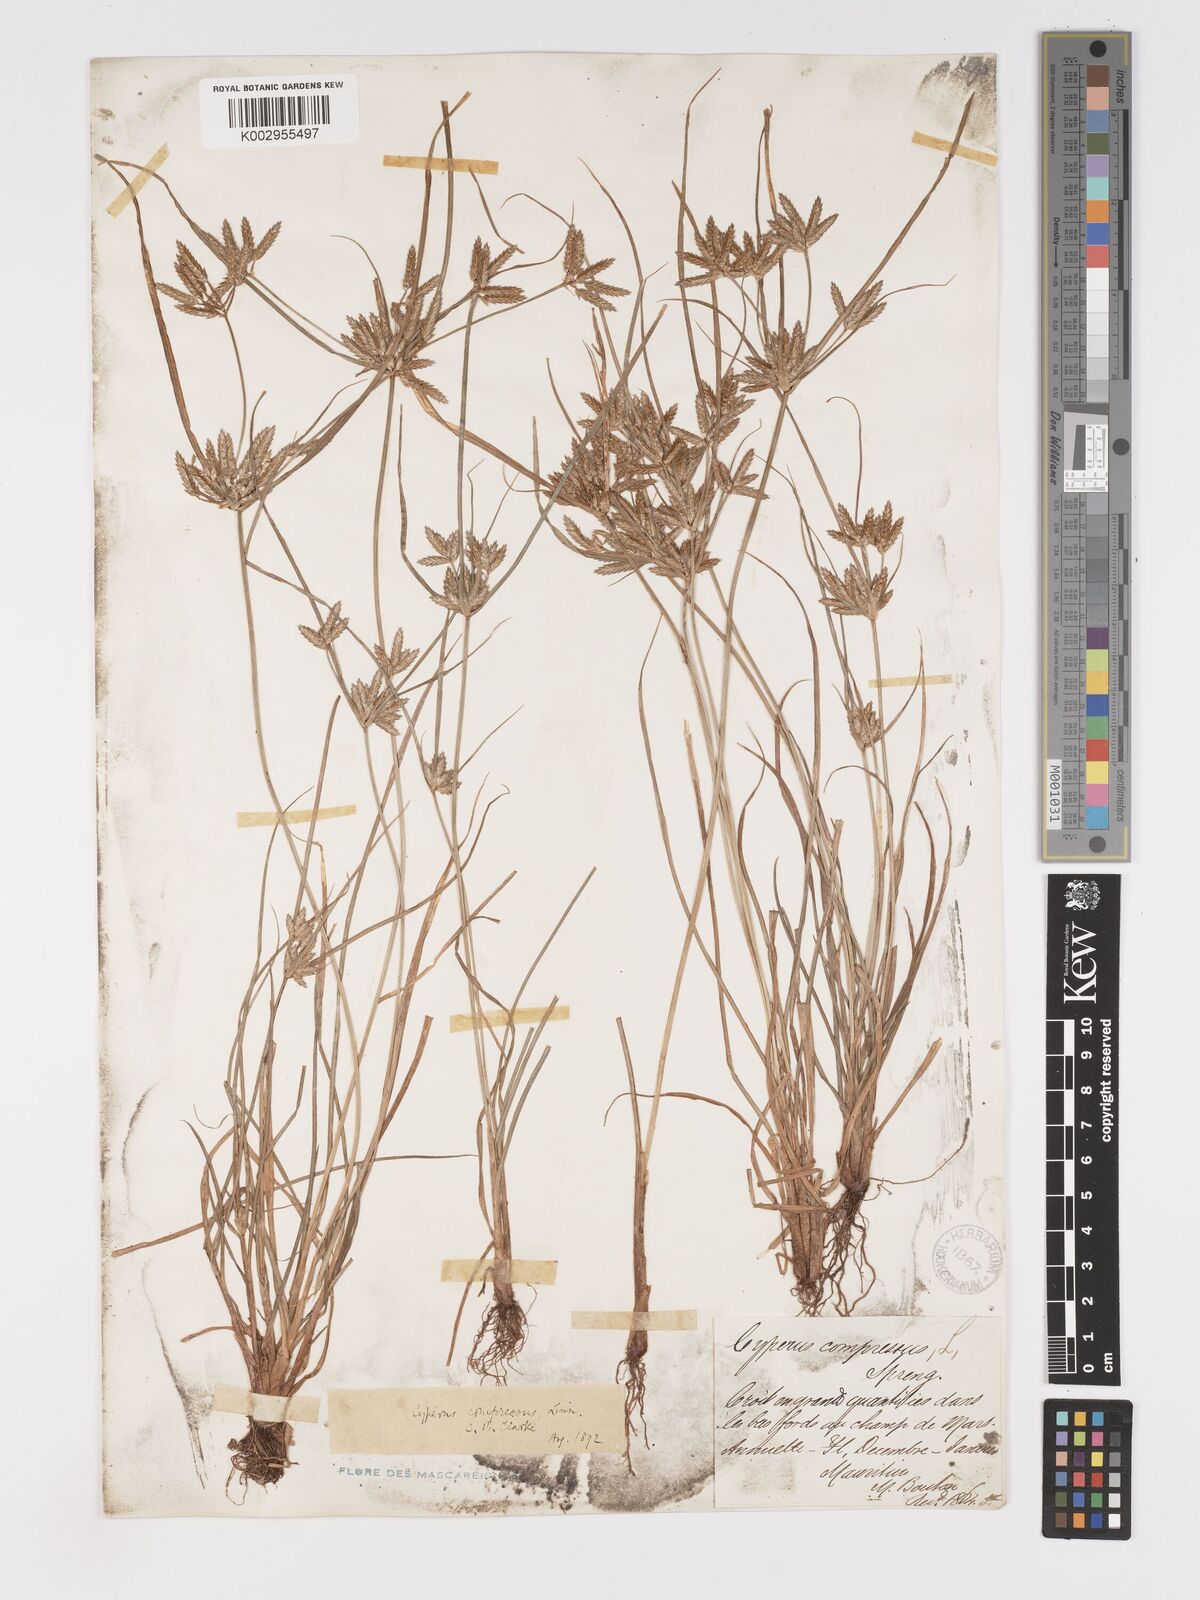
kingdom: Plantae
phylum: Tracheophyta
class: Liliopsida
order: Poales
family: Cyperaceae
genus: Cyperus
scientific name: Cyperus compressus
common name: Poorland flatsedge
